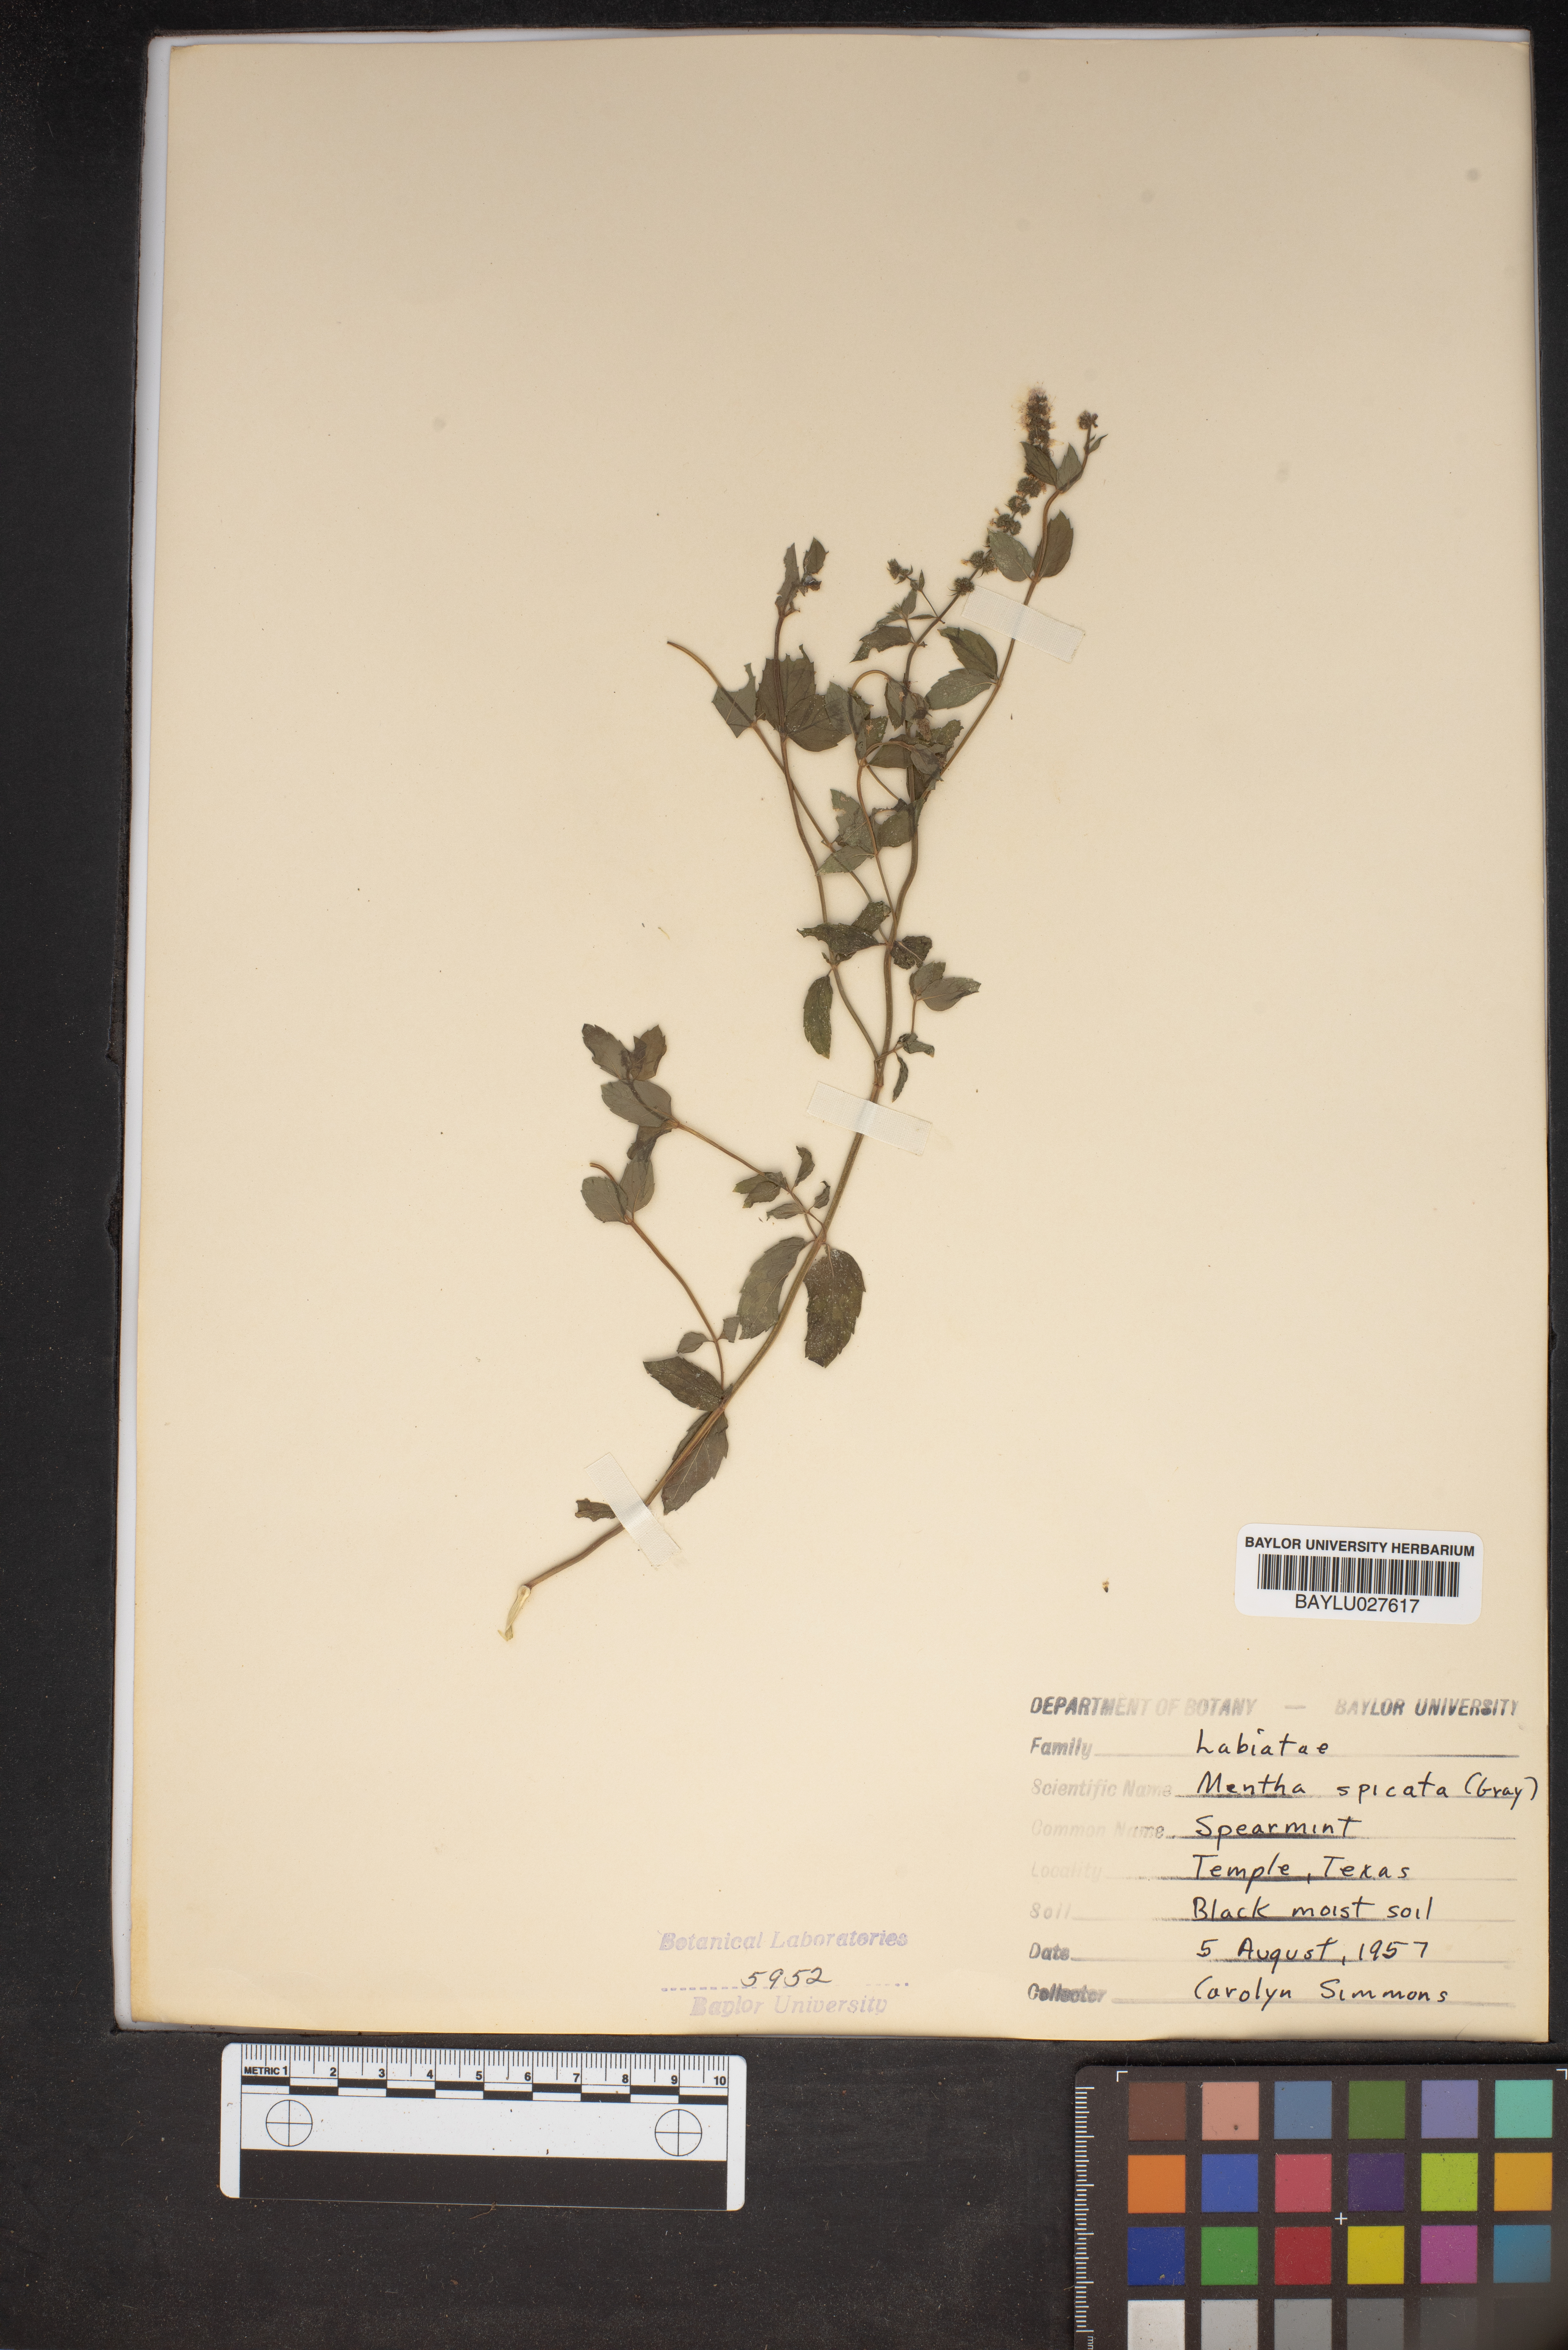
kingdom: Plantae
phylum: Tracheophyta
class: Magnoliopsida
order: Lamiales
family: Lamiaceae
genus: Mentha
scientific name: Mentha spicata
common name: Spearmint
